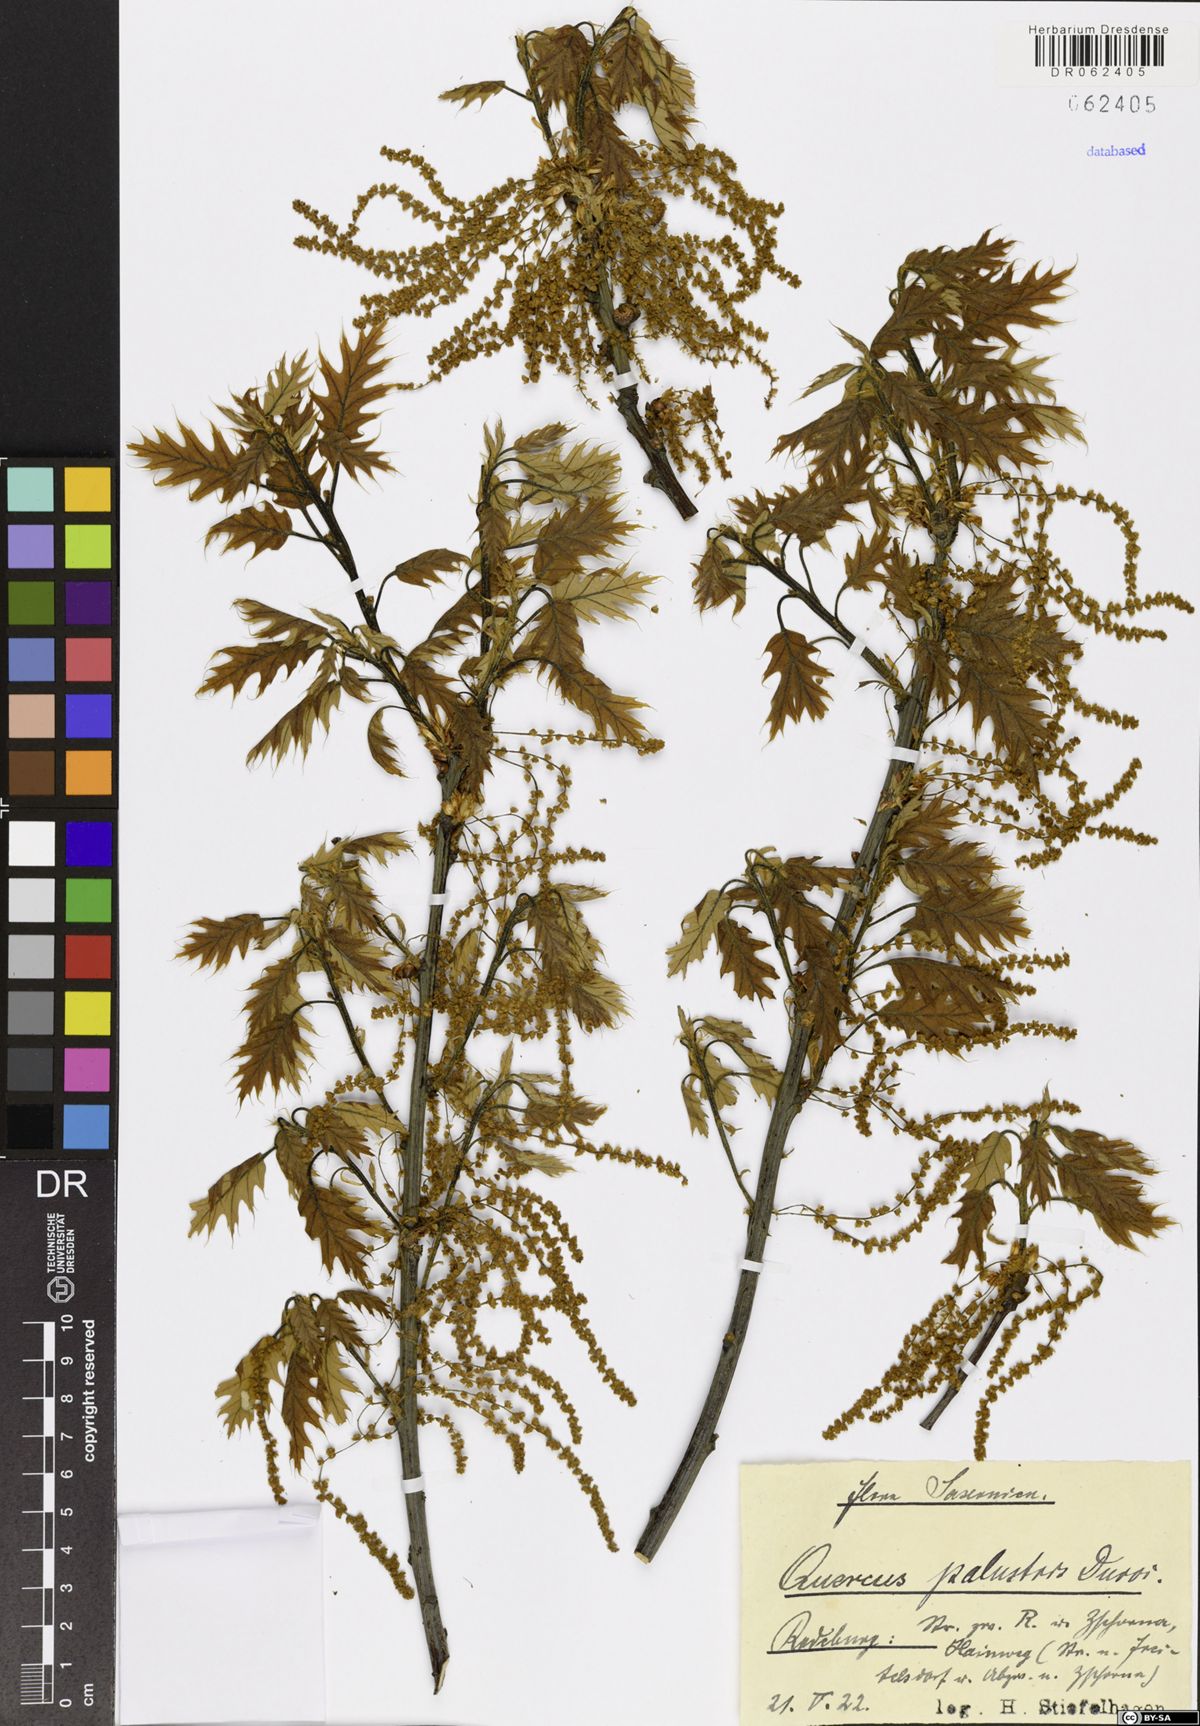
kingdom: Plantae
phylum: Tracheophyta
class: Magnoliopsida
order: Fagales
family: Fagaceae
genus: Quercus
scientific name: Quercus palustris
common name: Pin oak
